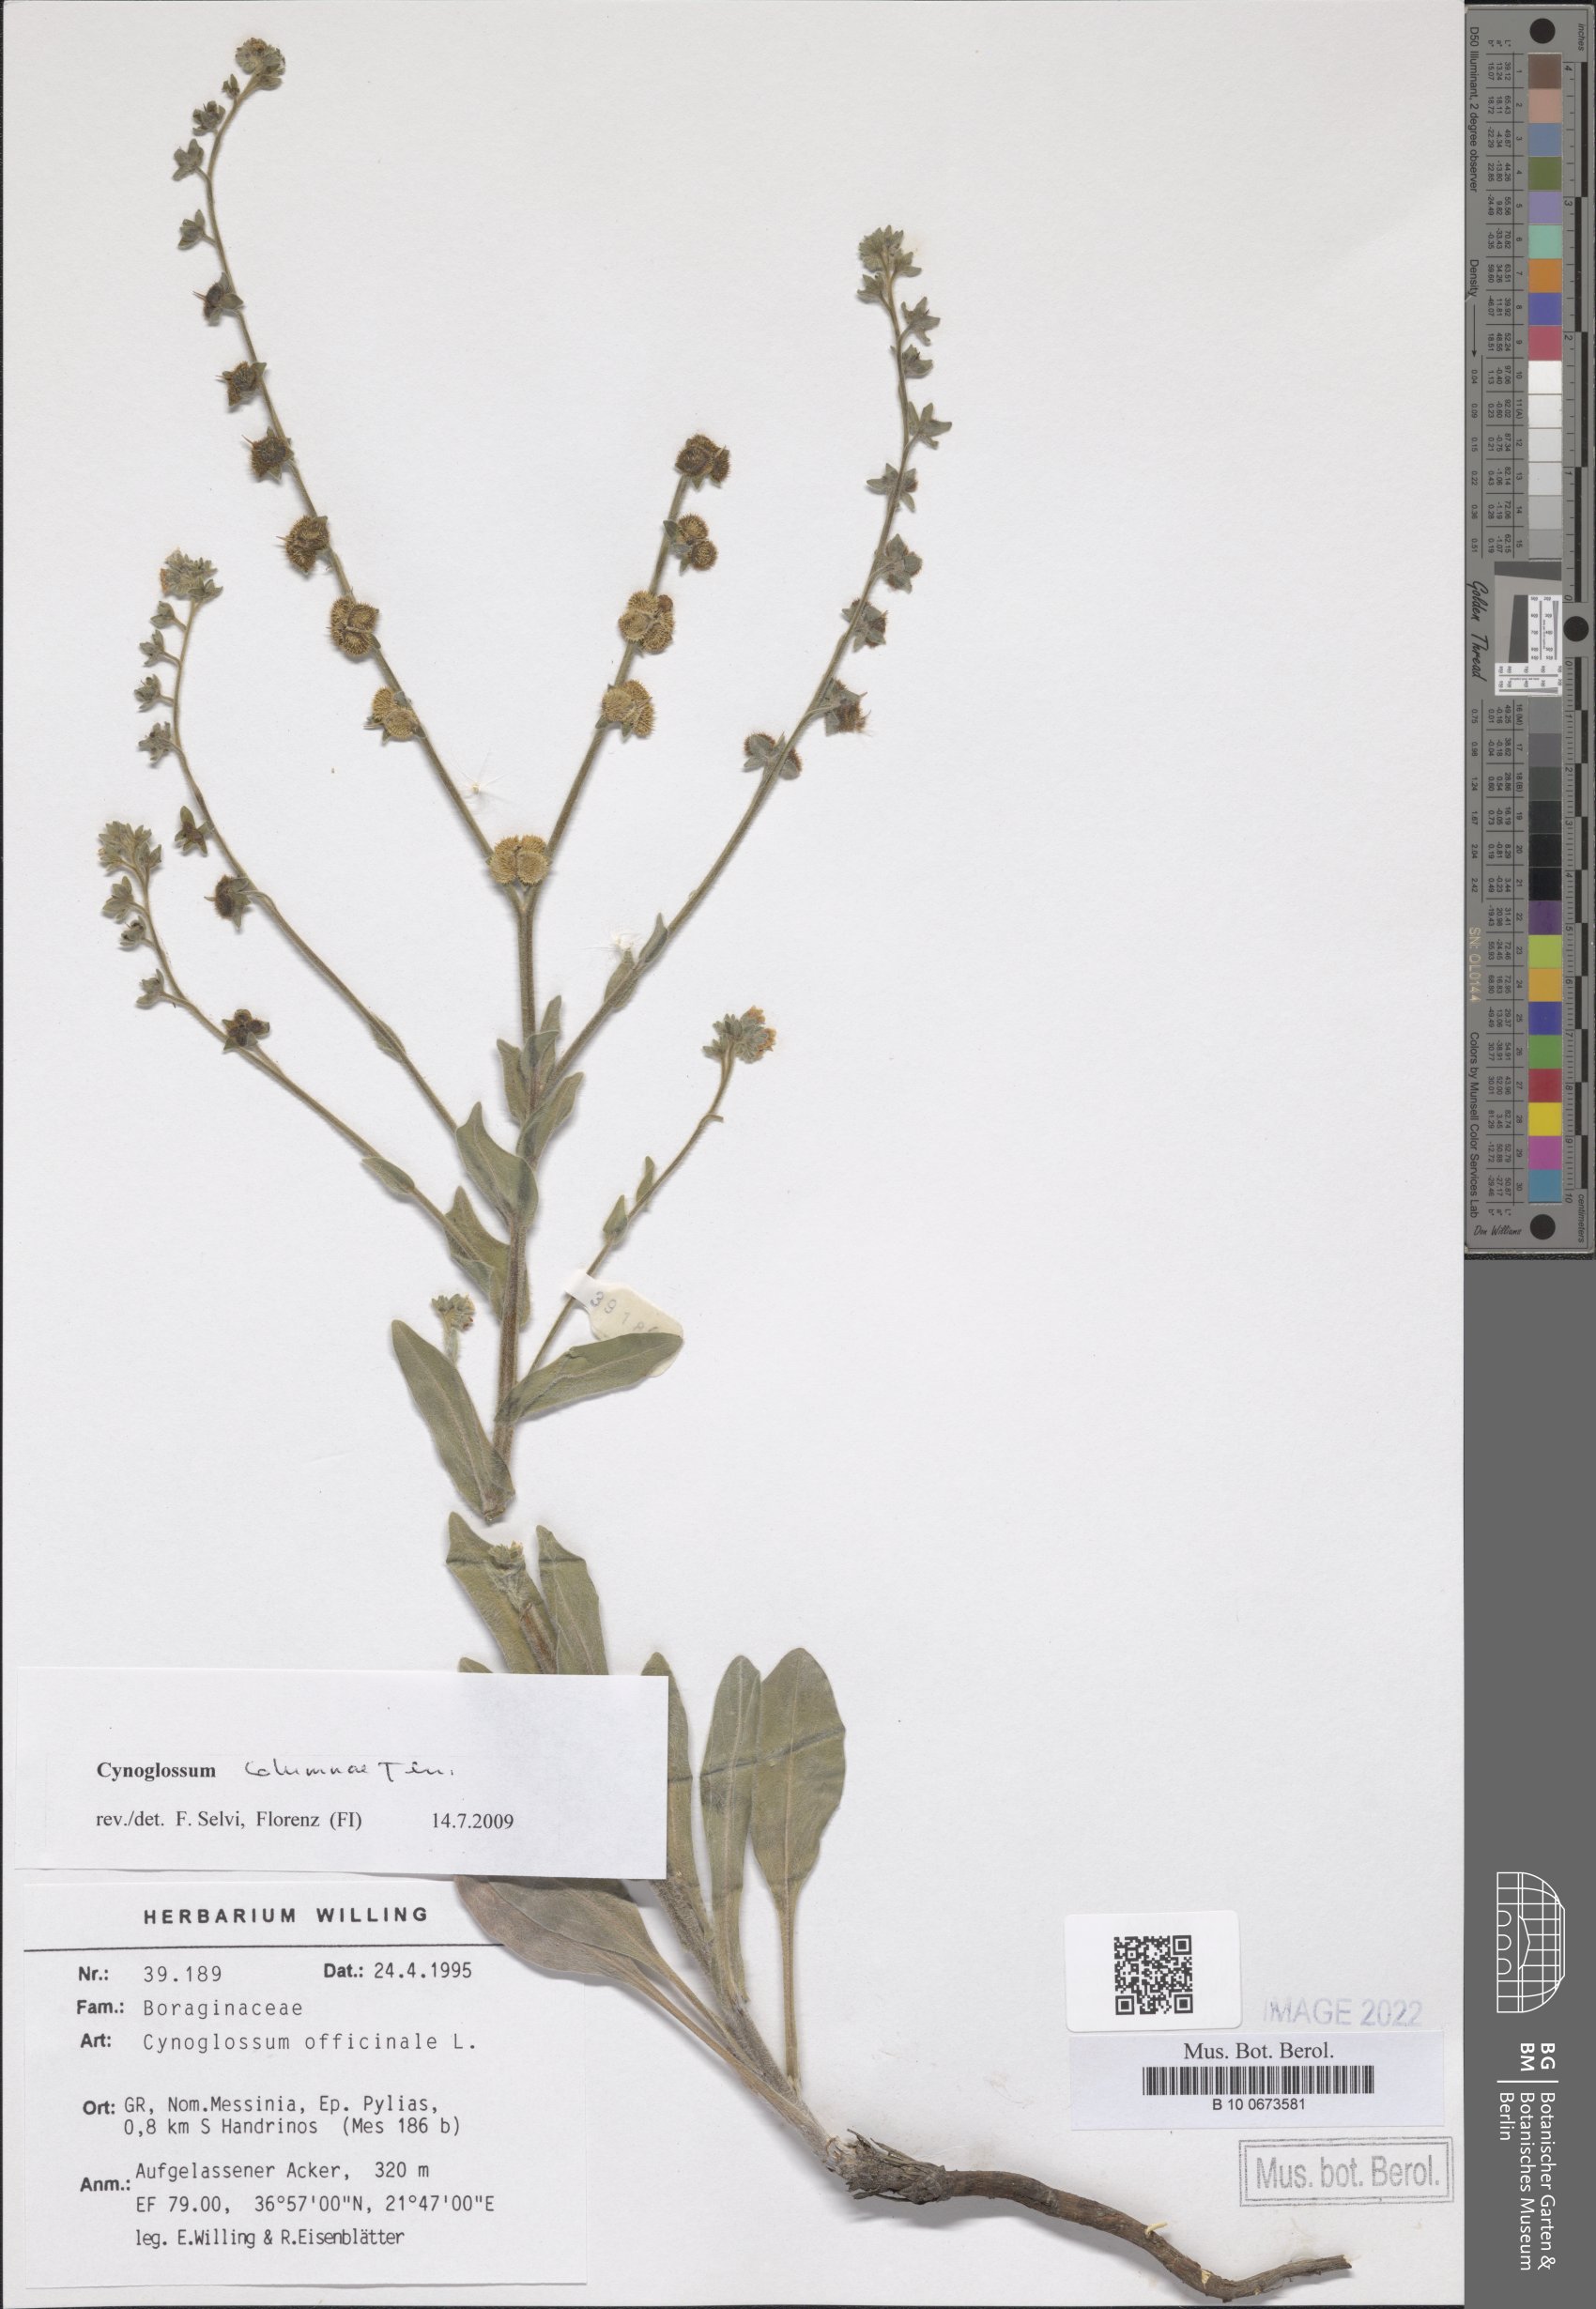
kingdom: Plantae
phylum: Tracheophyta
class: Magnoliopsida
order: Boraginales
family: Boraginaceae
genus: Rindera
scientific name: Rindera columnae
